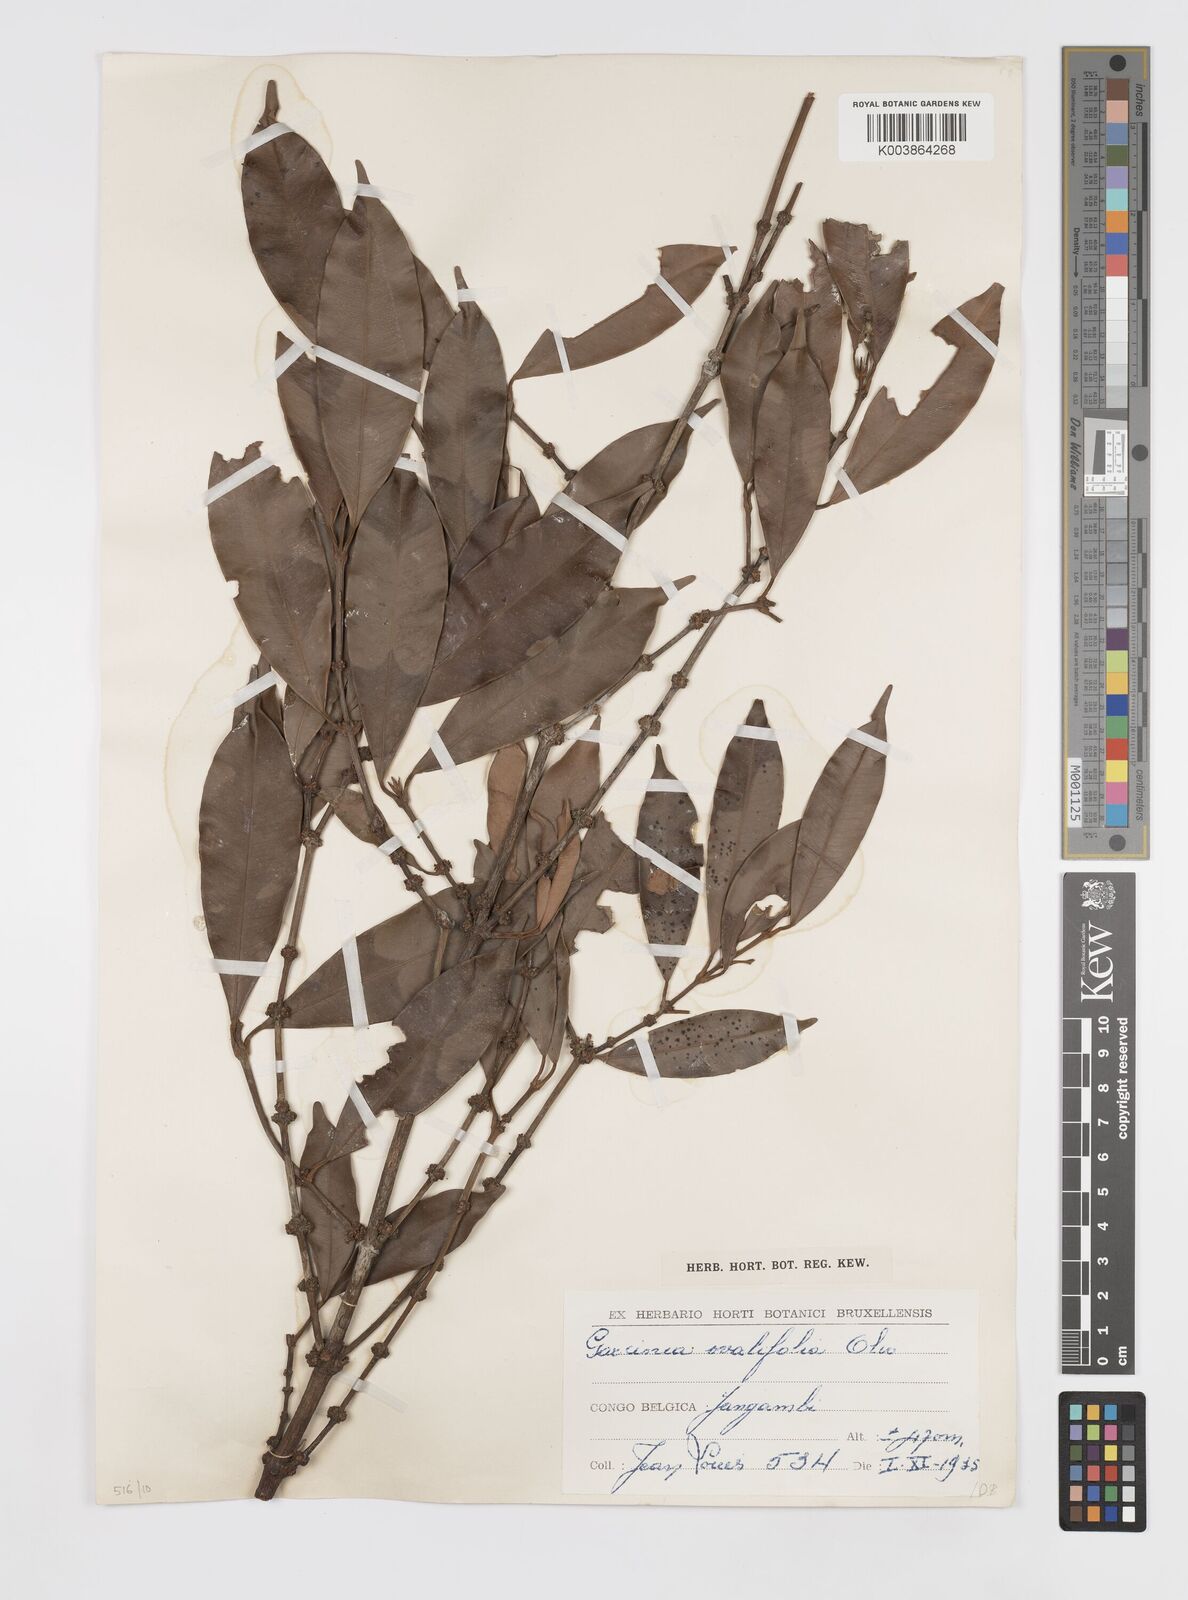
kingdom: Plantae
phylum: Tracheophyta
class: Magnoliopsida
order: Malpighiales
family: Clusiaceae
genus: Garcinia
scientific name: Garcinia ovalifolia
